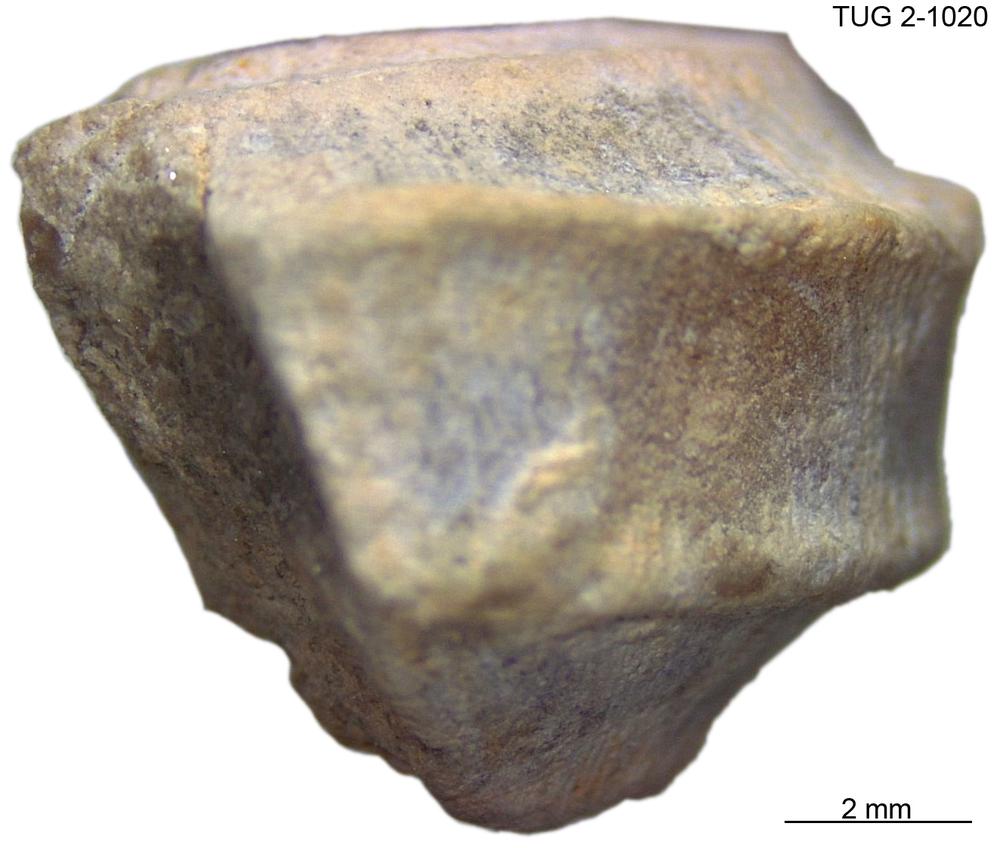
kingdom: Animalia
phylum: Mollusca
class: Gastropoda
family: Trochonematidae
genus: Trochonema
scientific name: Trochonema panderi
